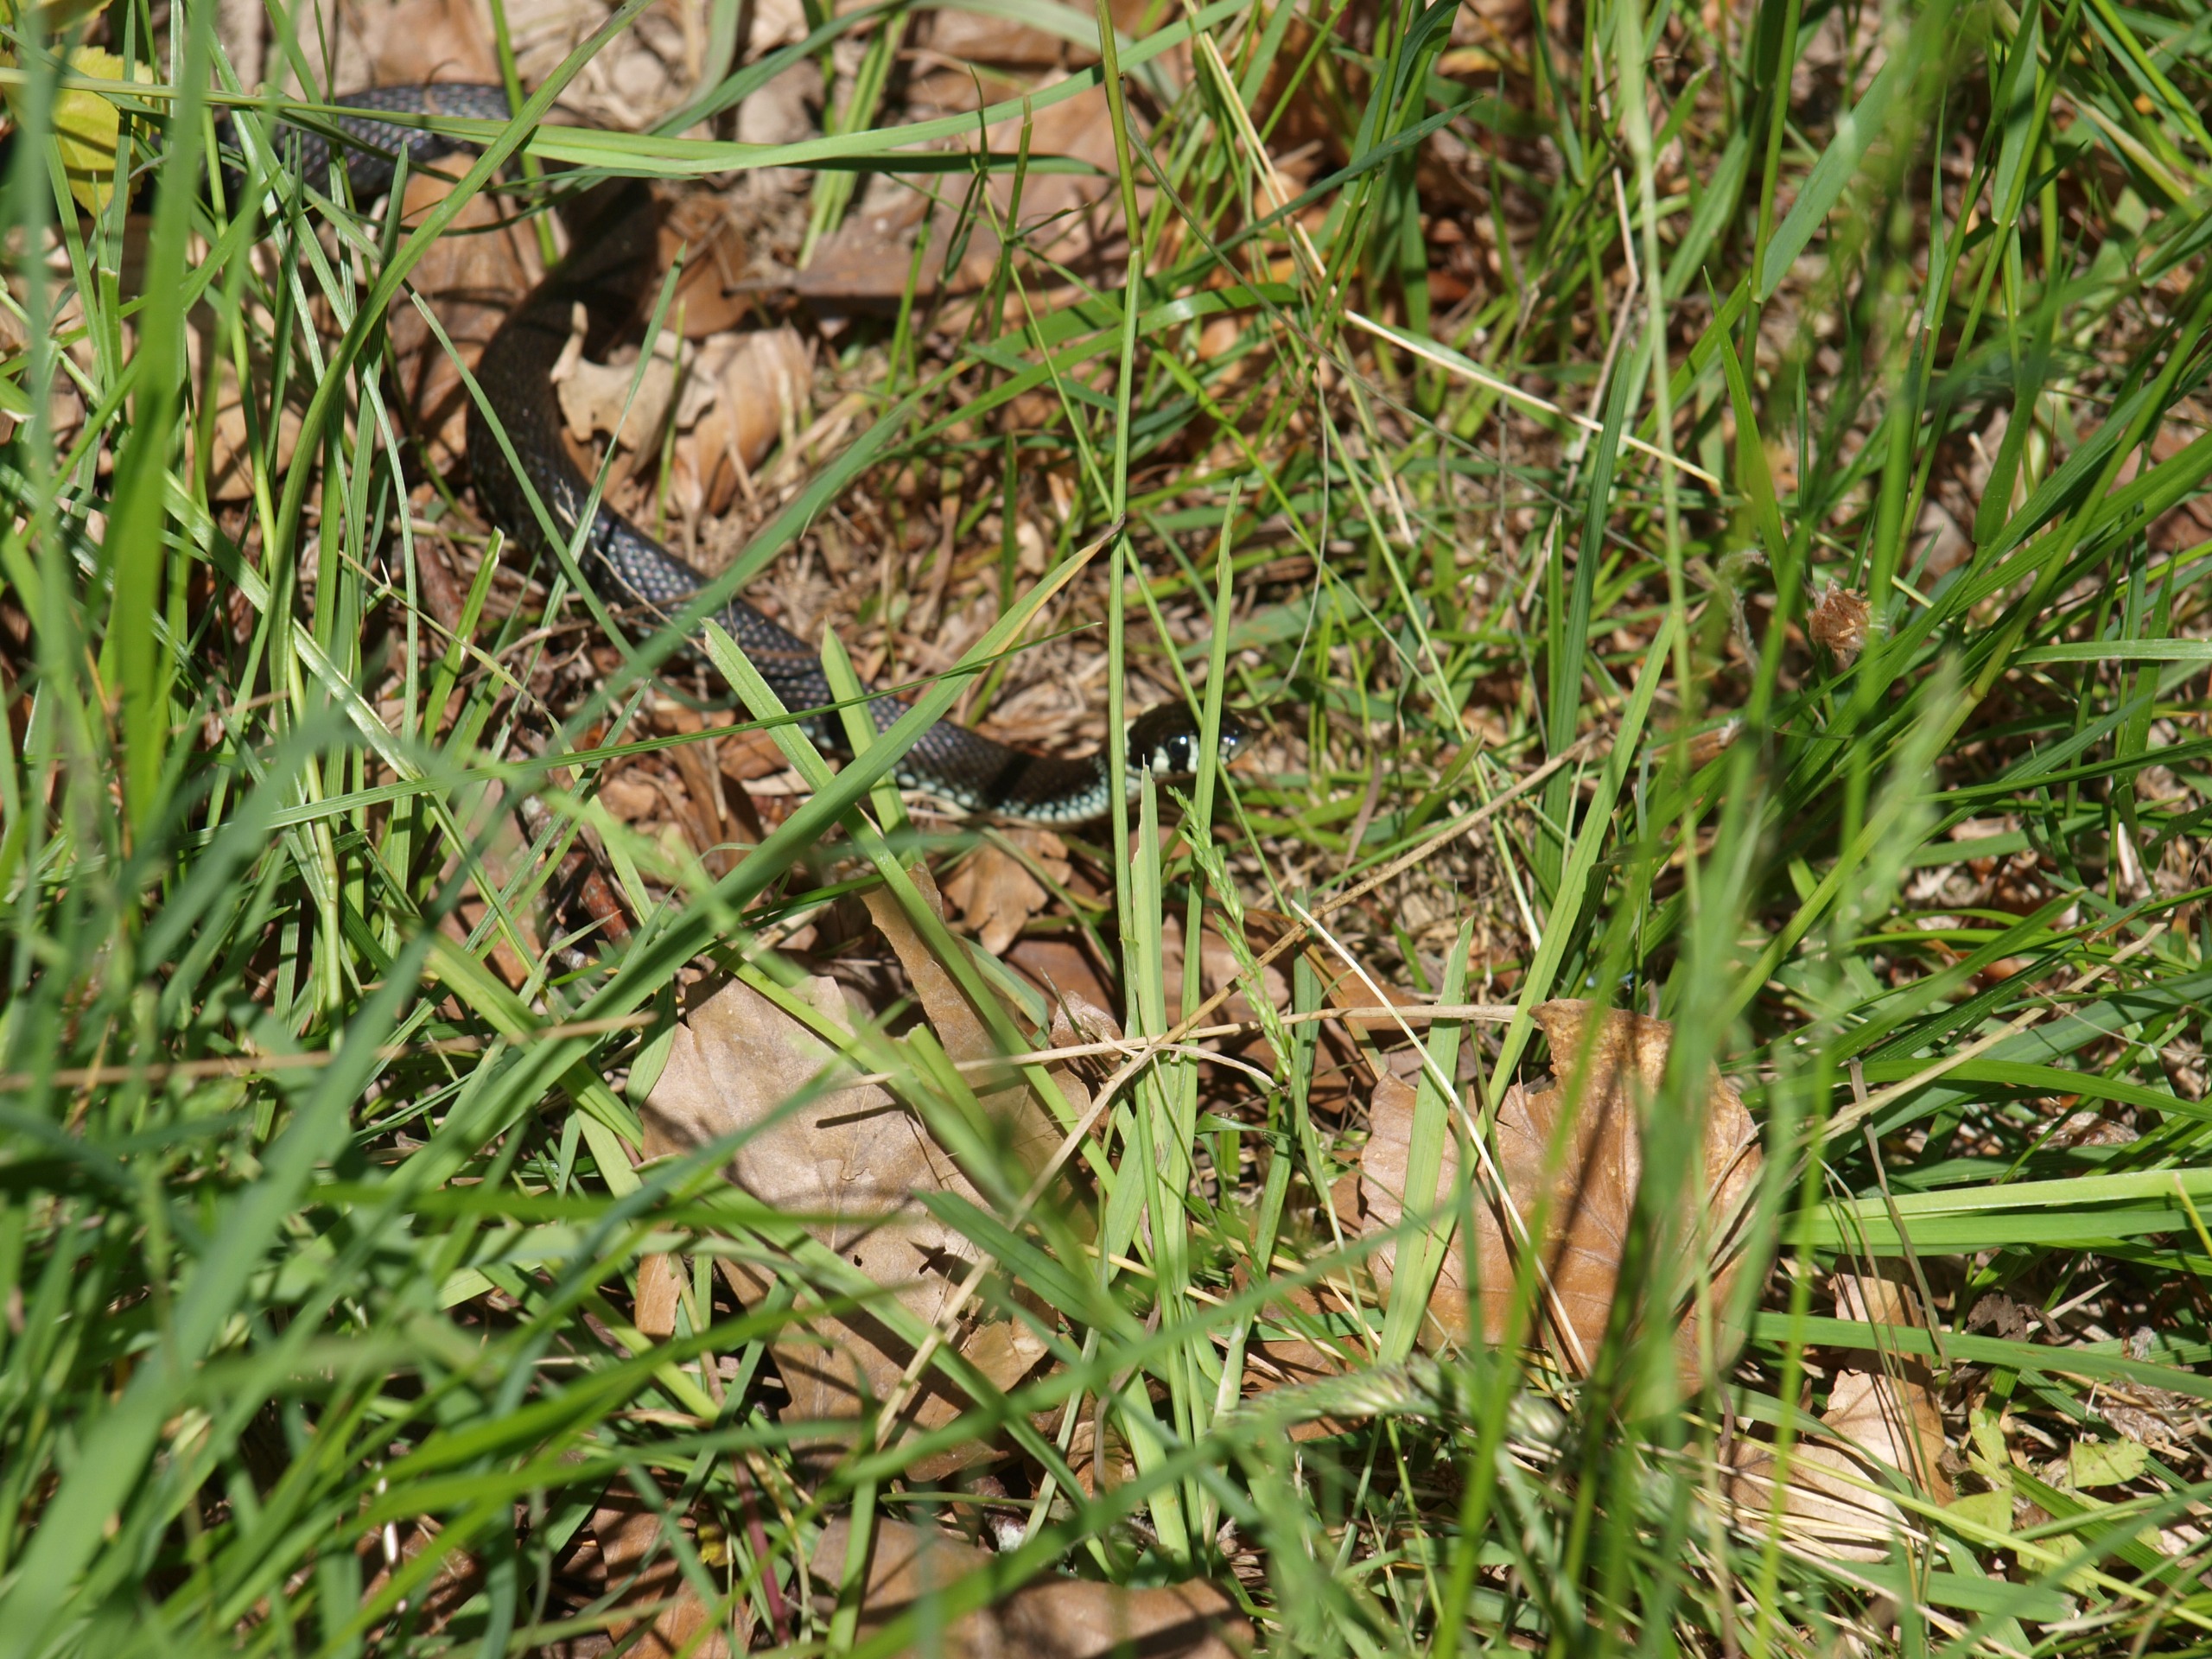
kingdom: Animalia
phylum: Chordata
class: Squamata
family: Colubridae
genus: Natrix
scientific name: Natrix natrix
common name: Snog
